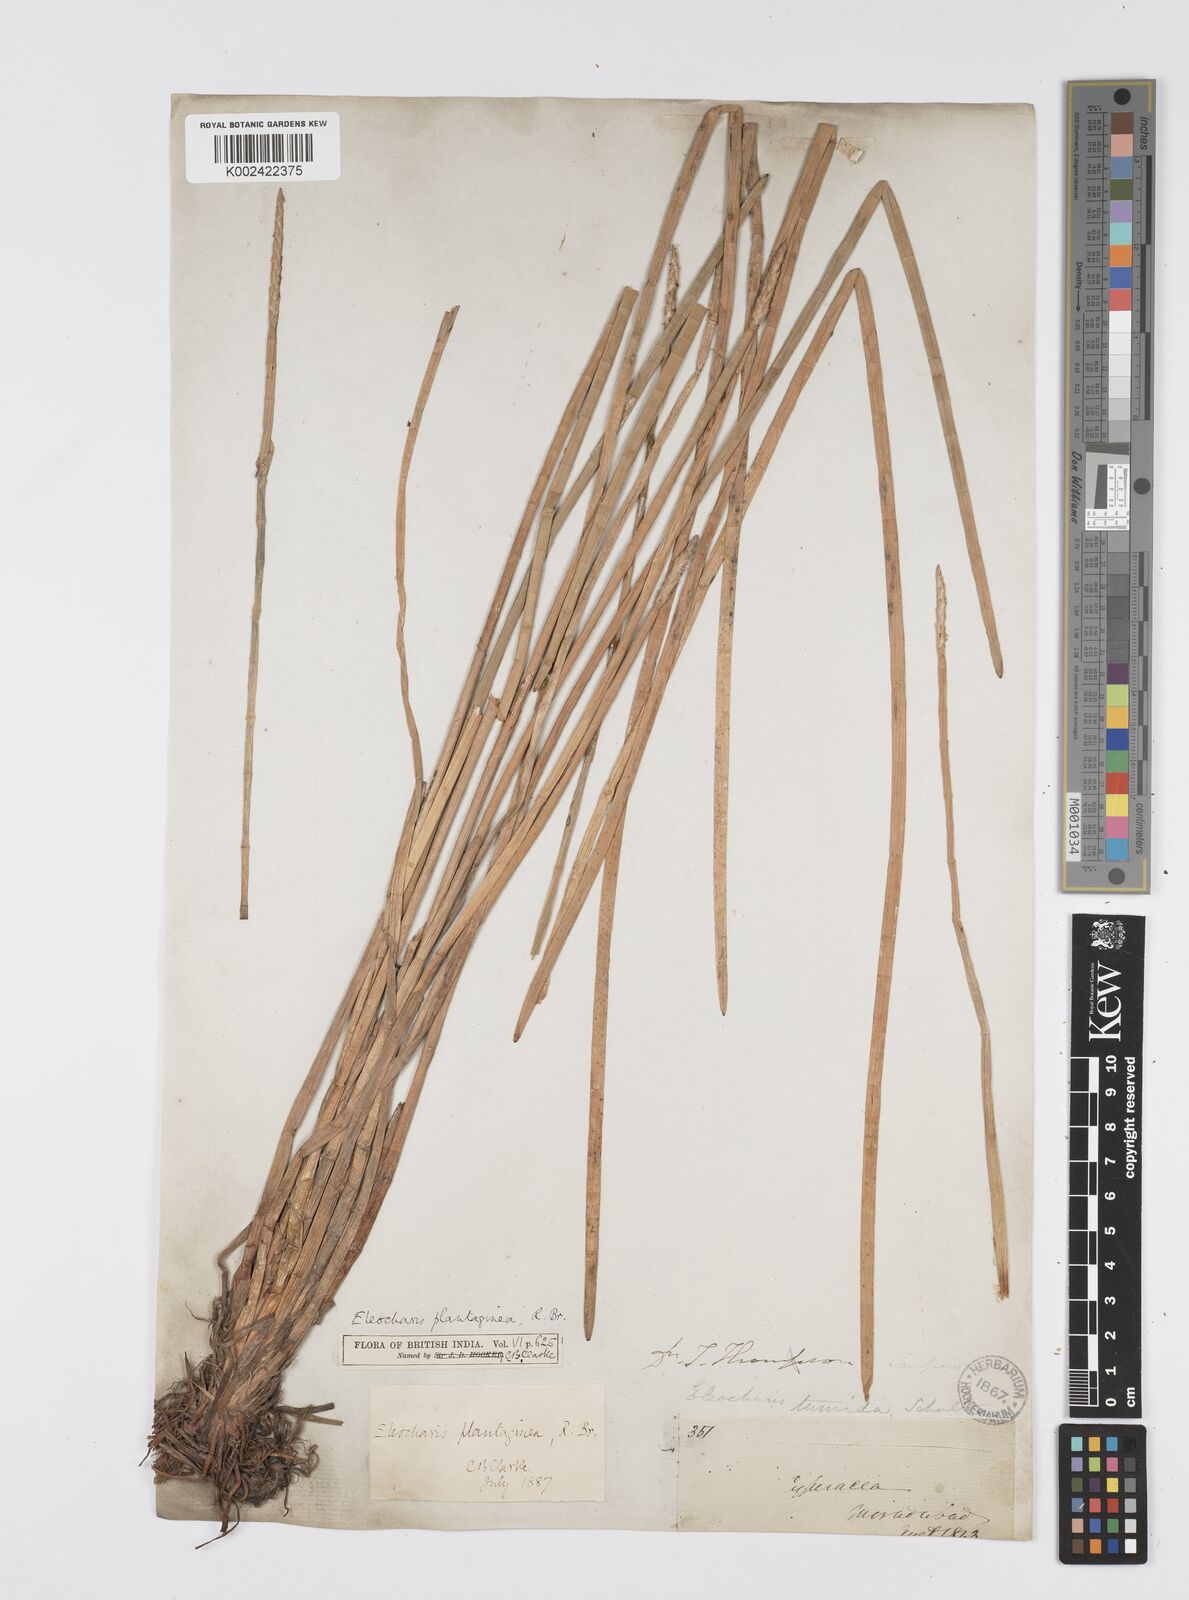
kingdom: Plantae
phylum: Tracheophyta
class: Liliopsida
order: Poales
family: Cyperaceae
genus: Eleocharis
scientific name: Eleocharis dulcis
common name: Chinese water chestnut
